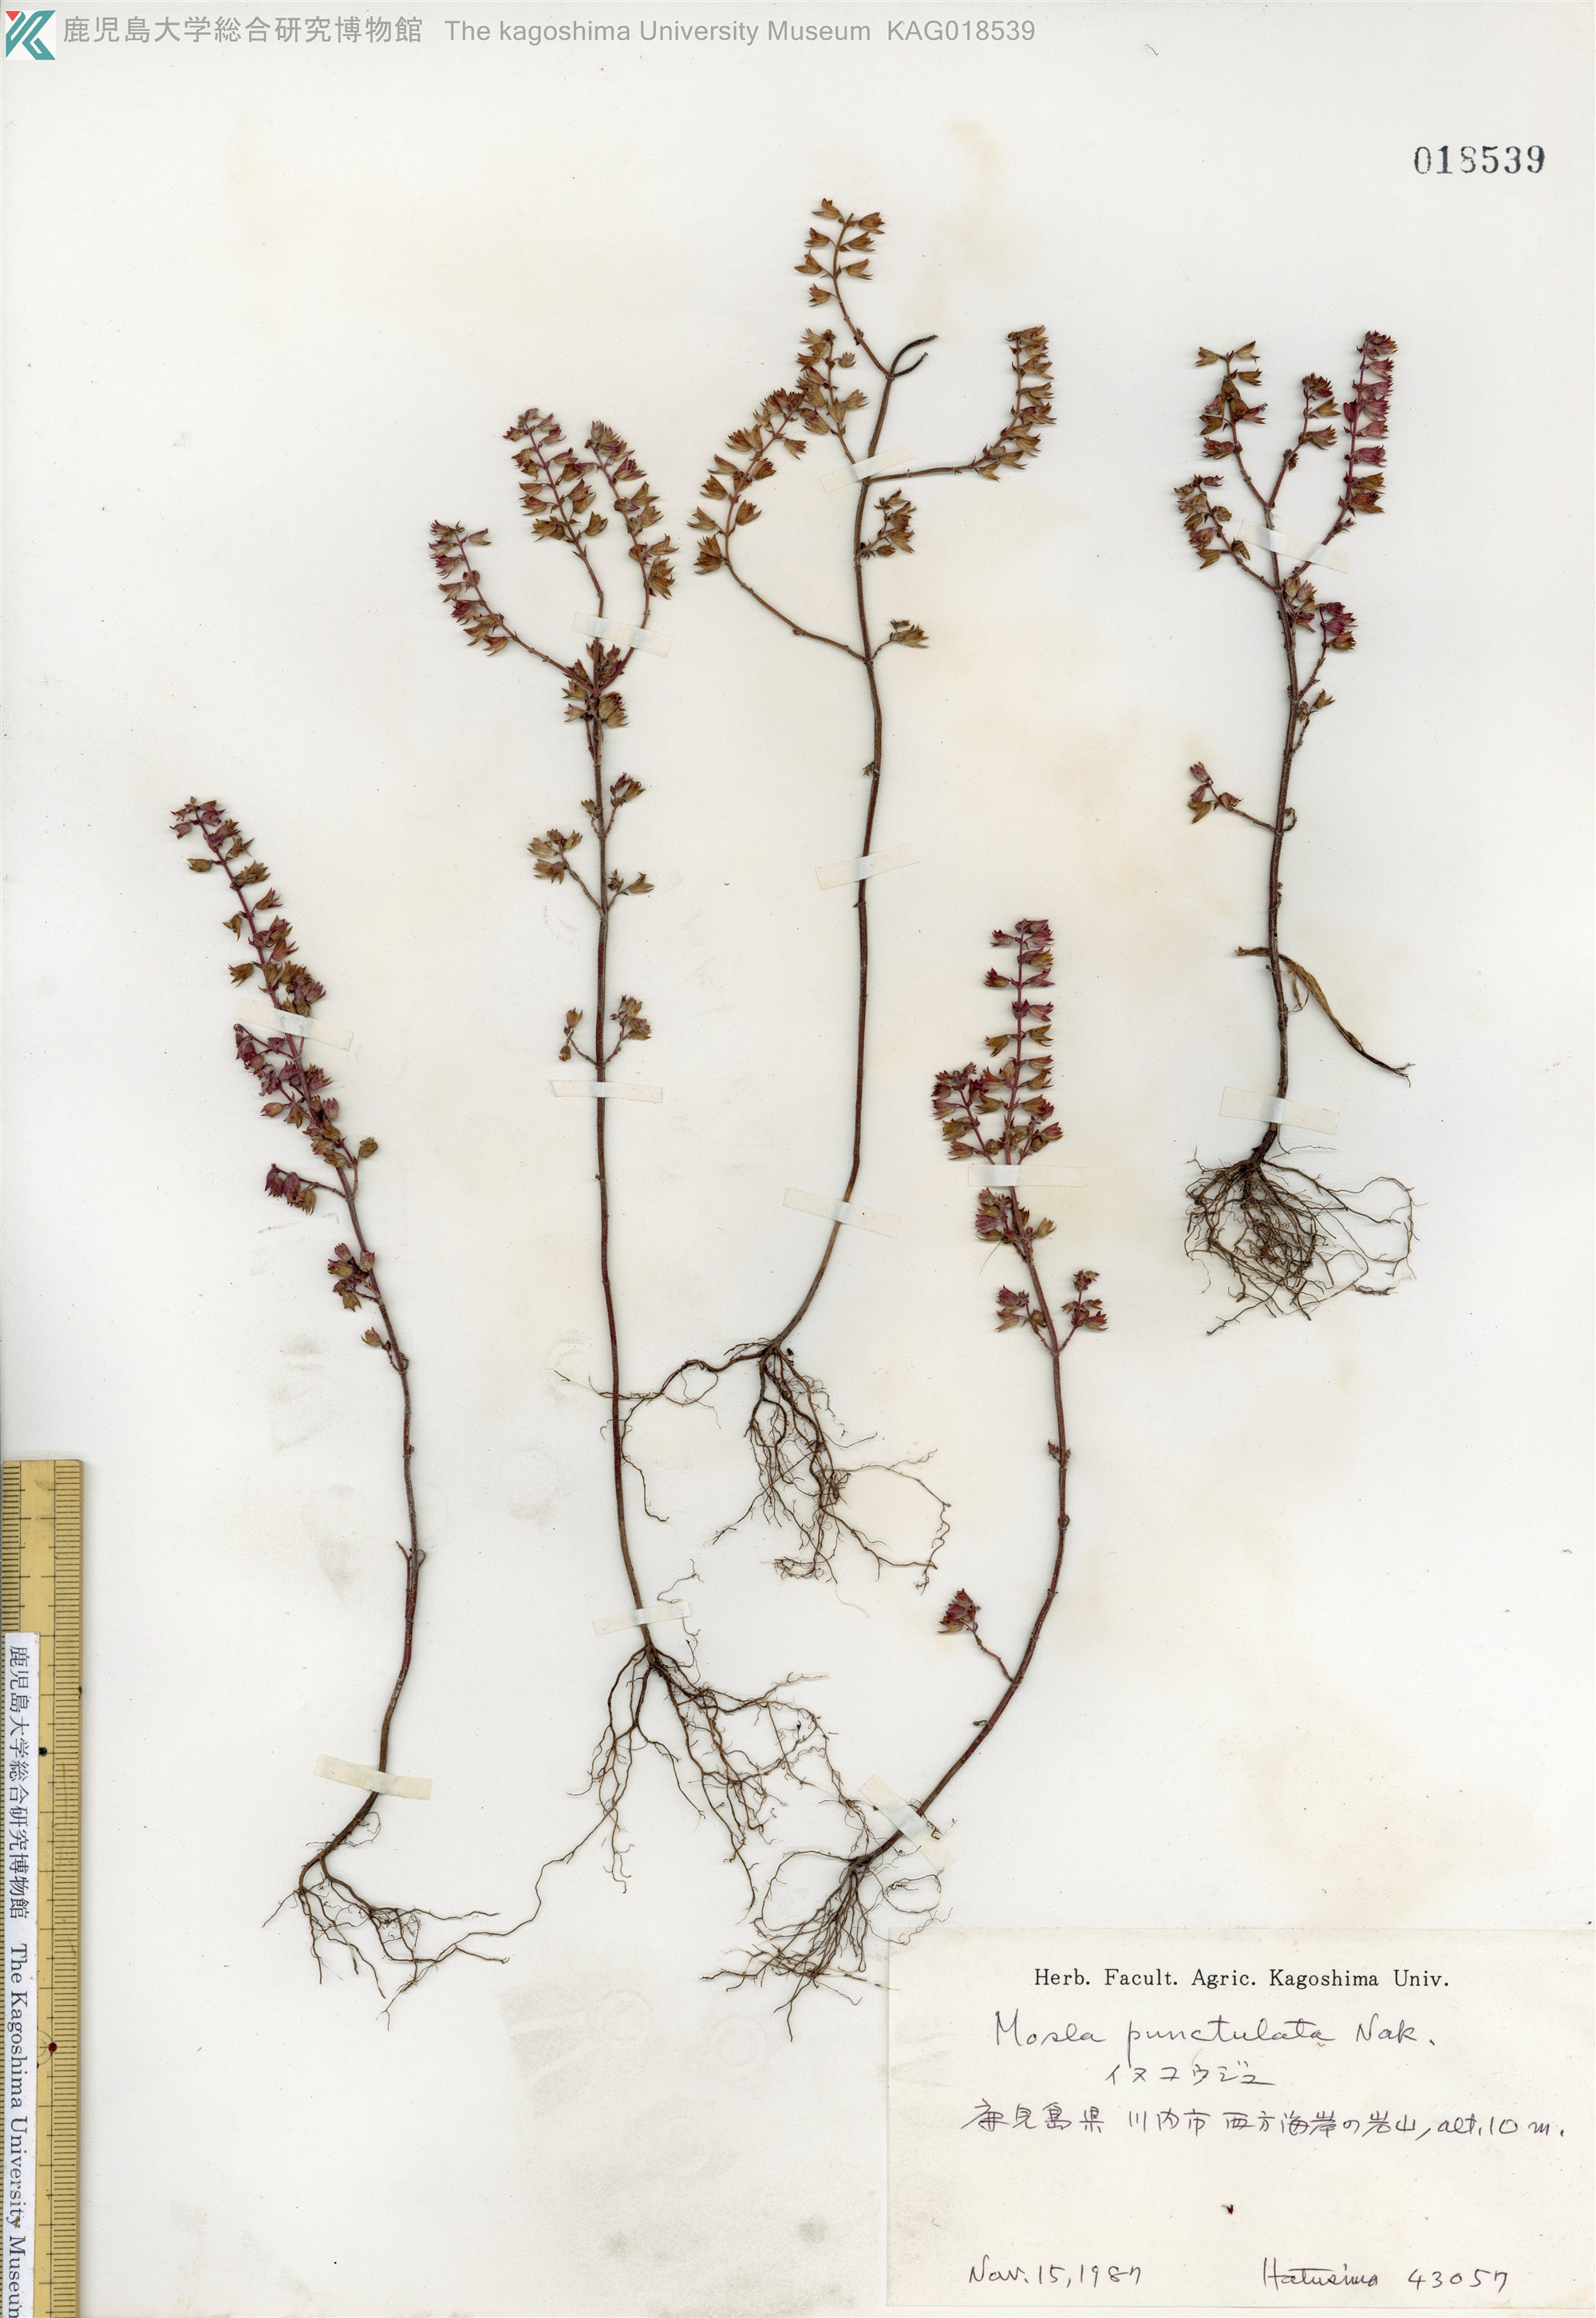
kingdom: Plantae
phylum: Tracheophyta
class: Magnoliopsida
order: Lamiales
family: Lamiaceae
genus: Mosla
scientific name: Mosla scabra
